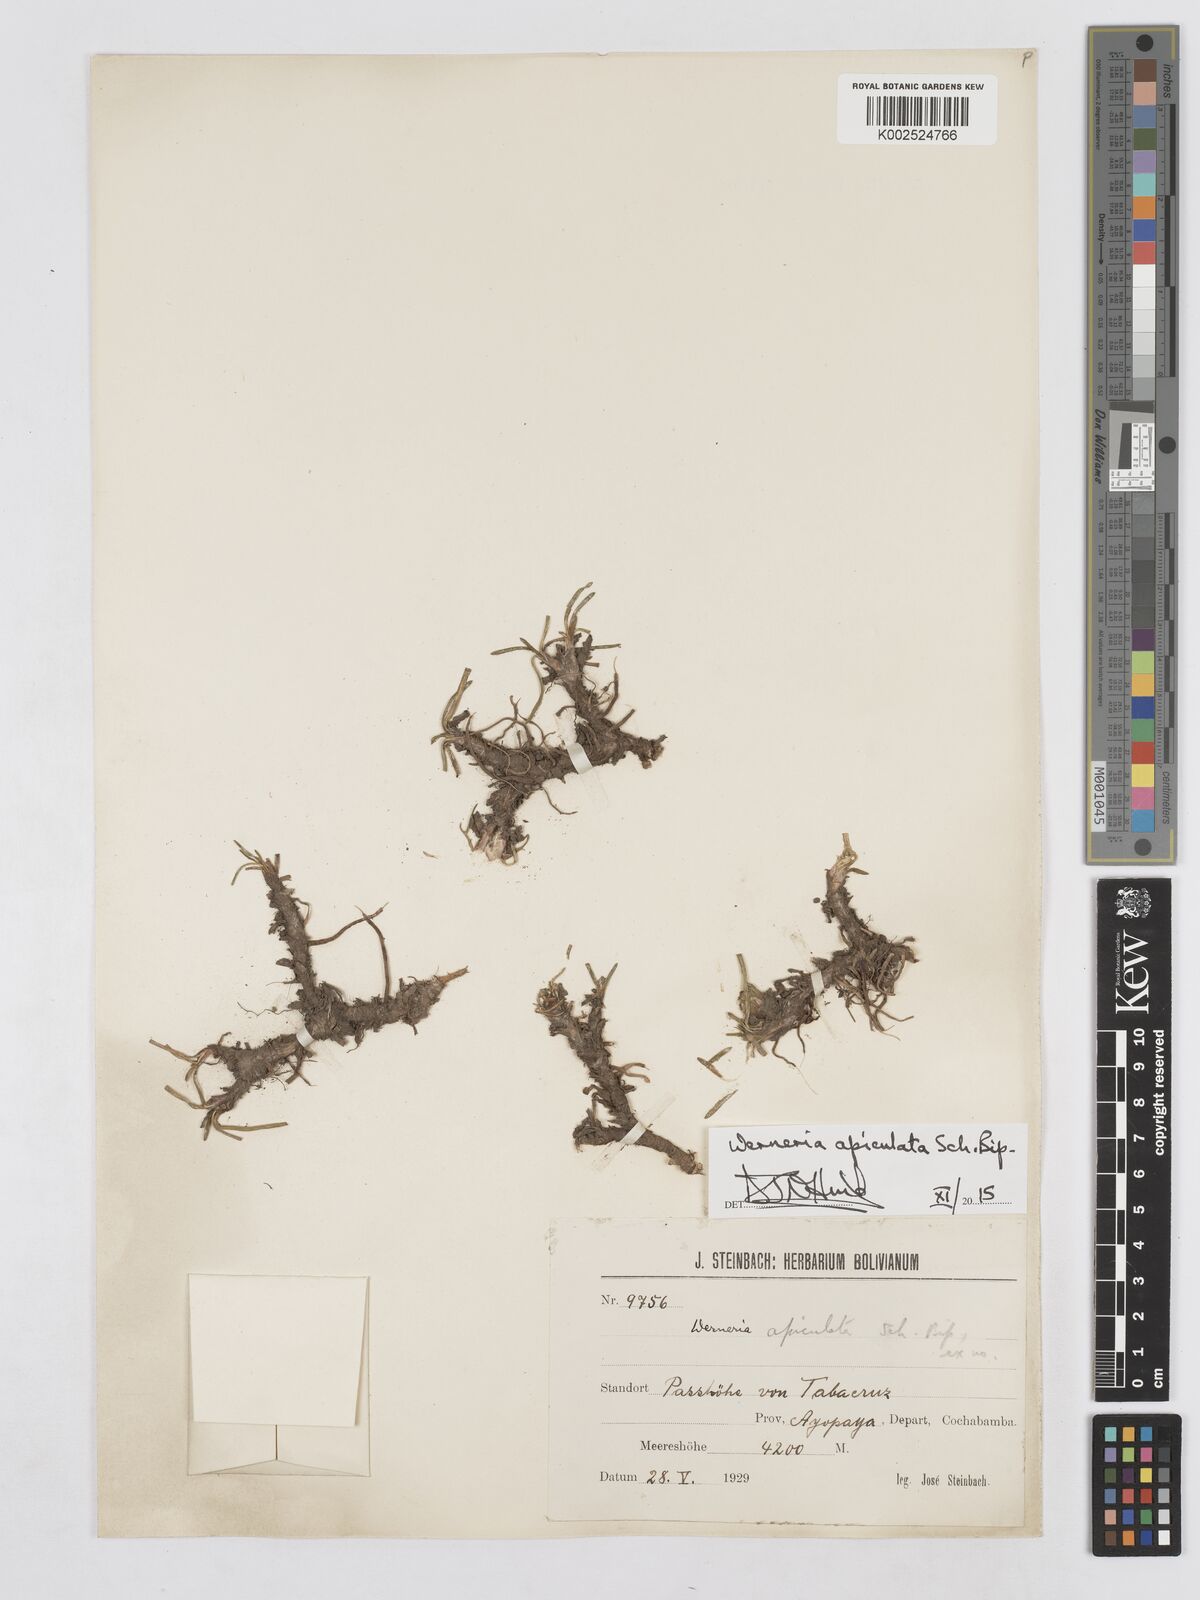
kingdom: Plantae
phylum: Tracheophyta
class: Magnoliopsida
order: Asterales
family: Asteraceae
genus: Rockhausenia
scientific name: Rockhausenia apiculata
